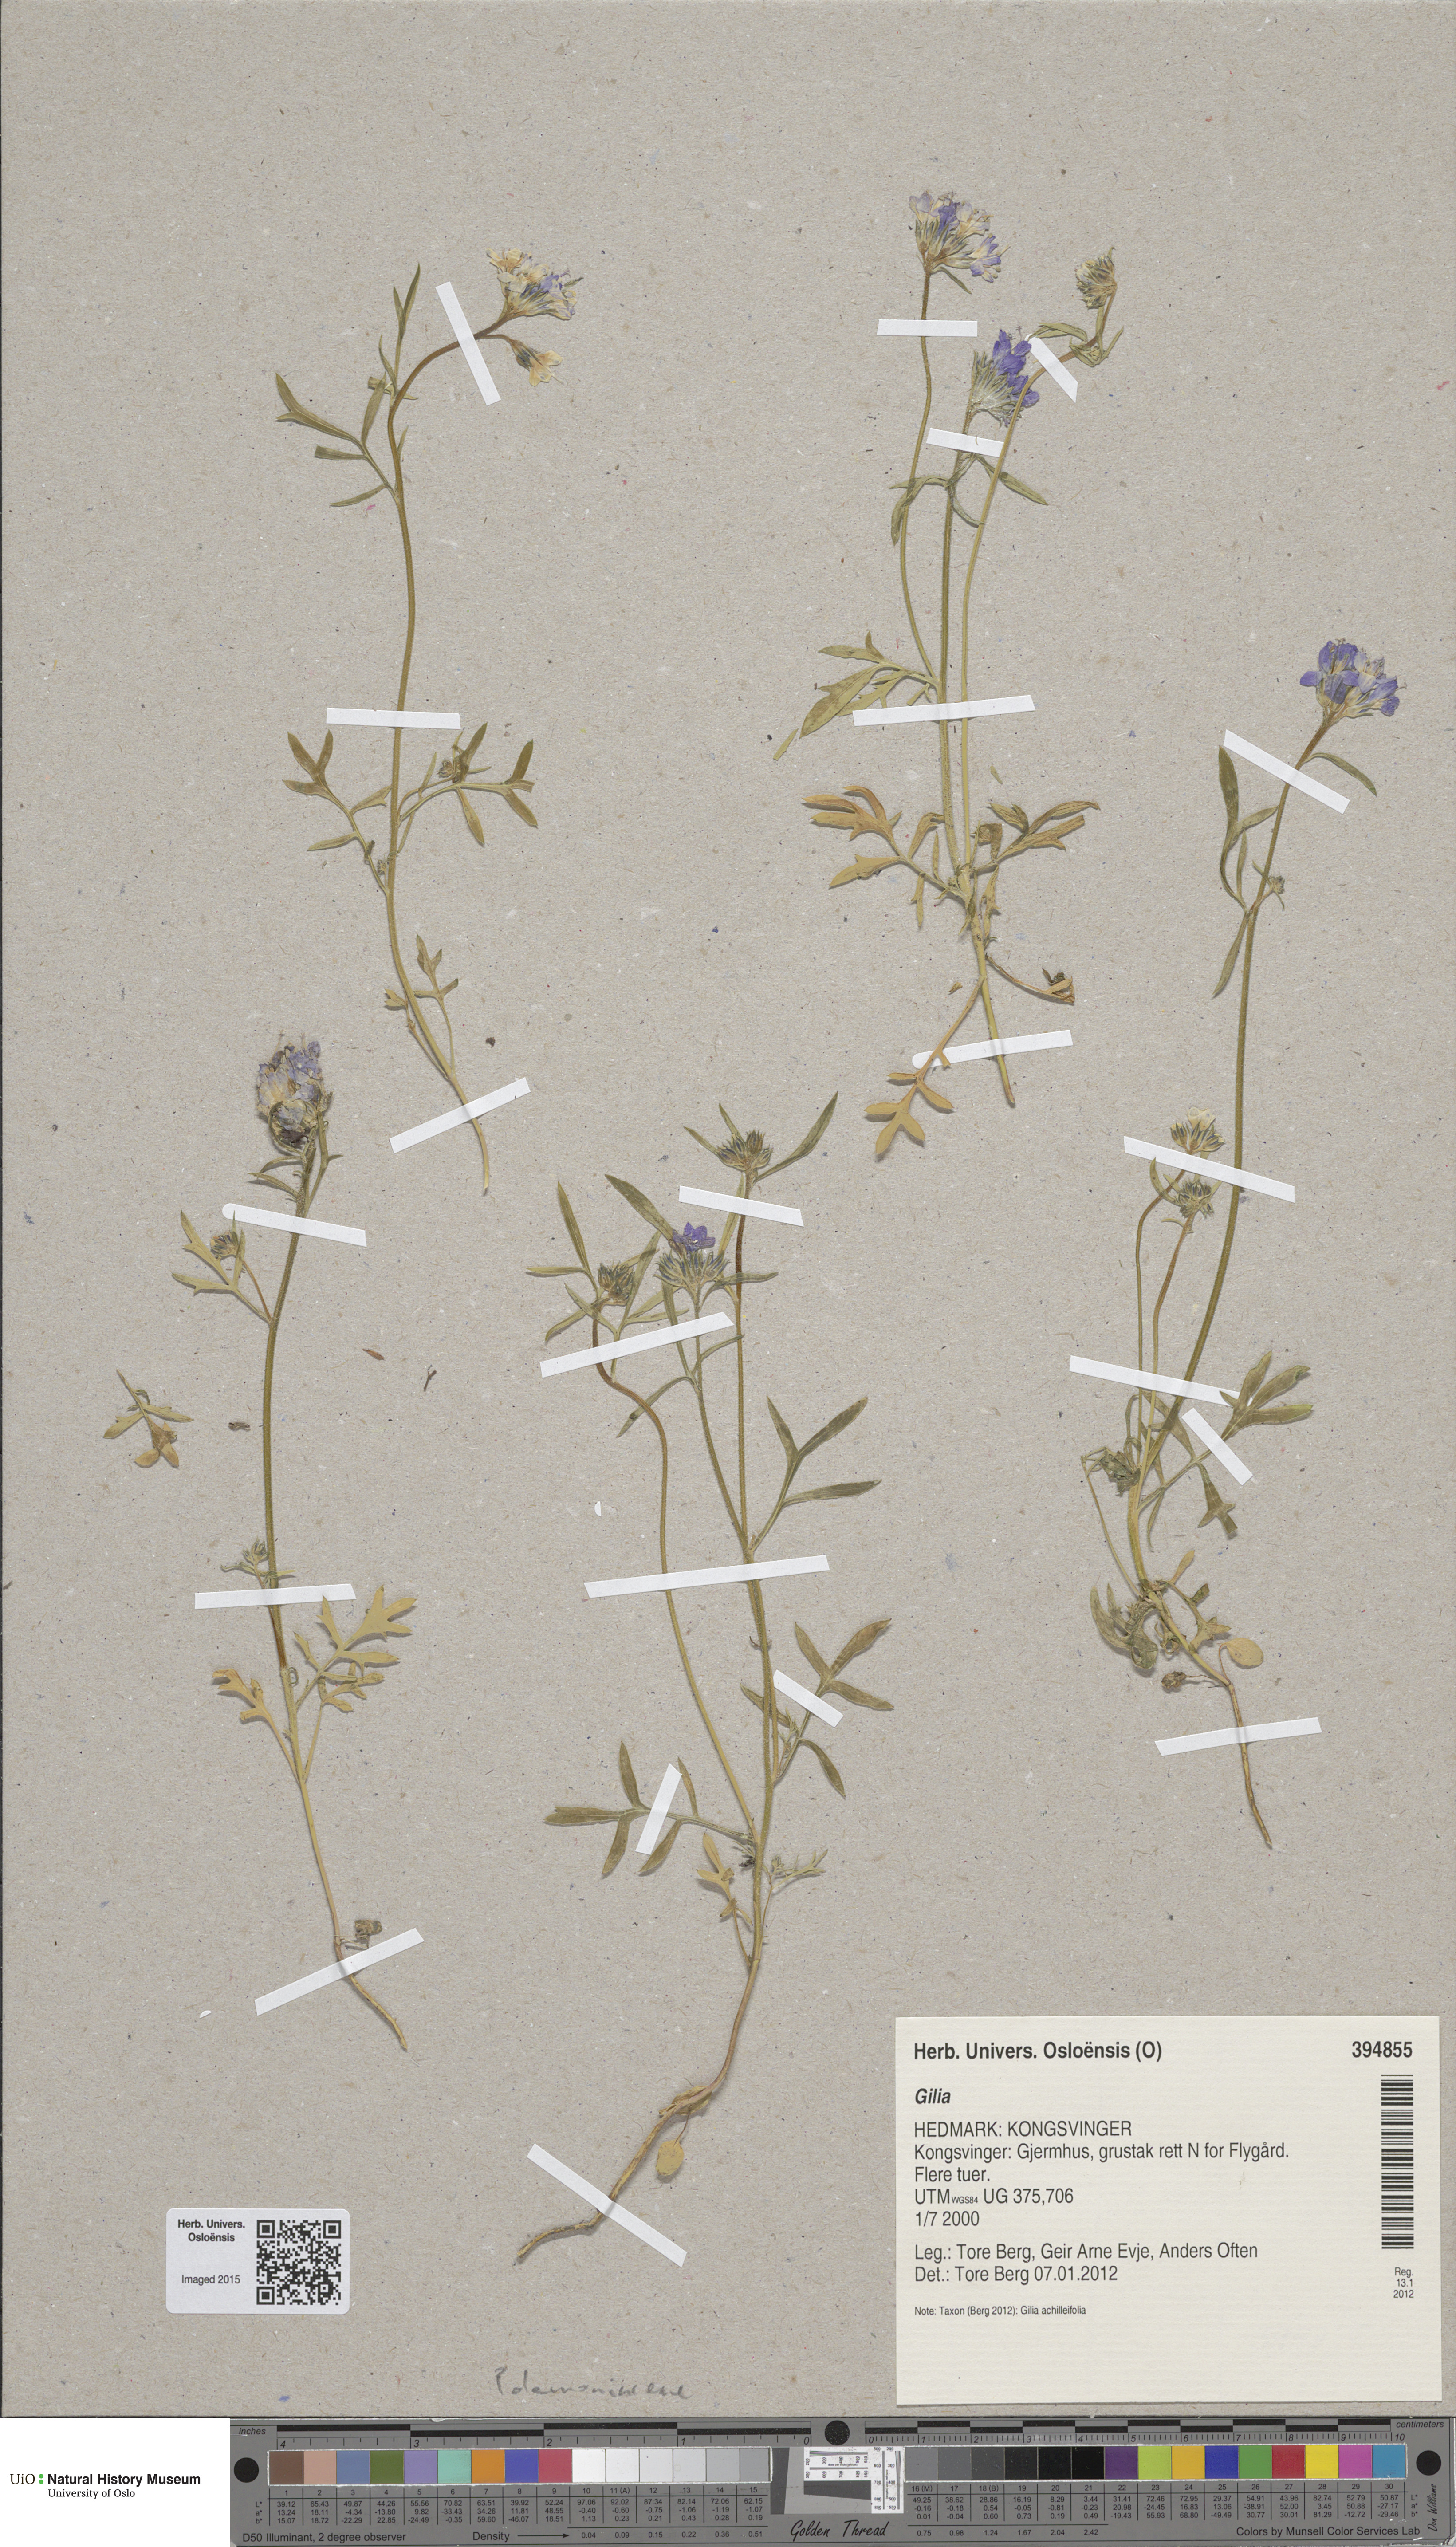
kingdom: Plantae
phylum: Tracheophyta
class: Magnoliopsida
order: Ericales
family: Polemoniaceae
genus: Gilia
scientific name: Gilia capitata
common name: Bluehead gilia
